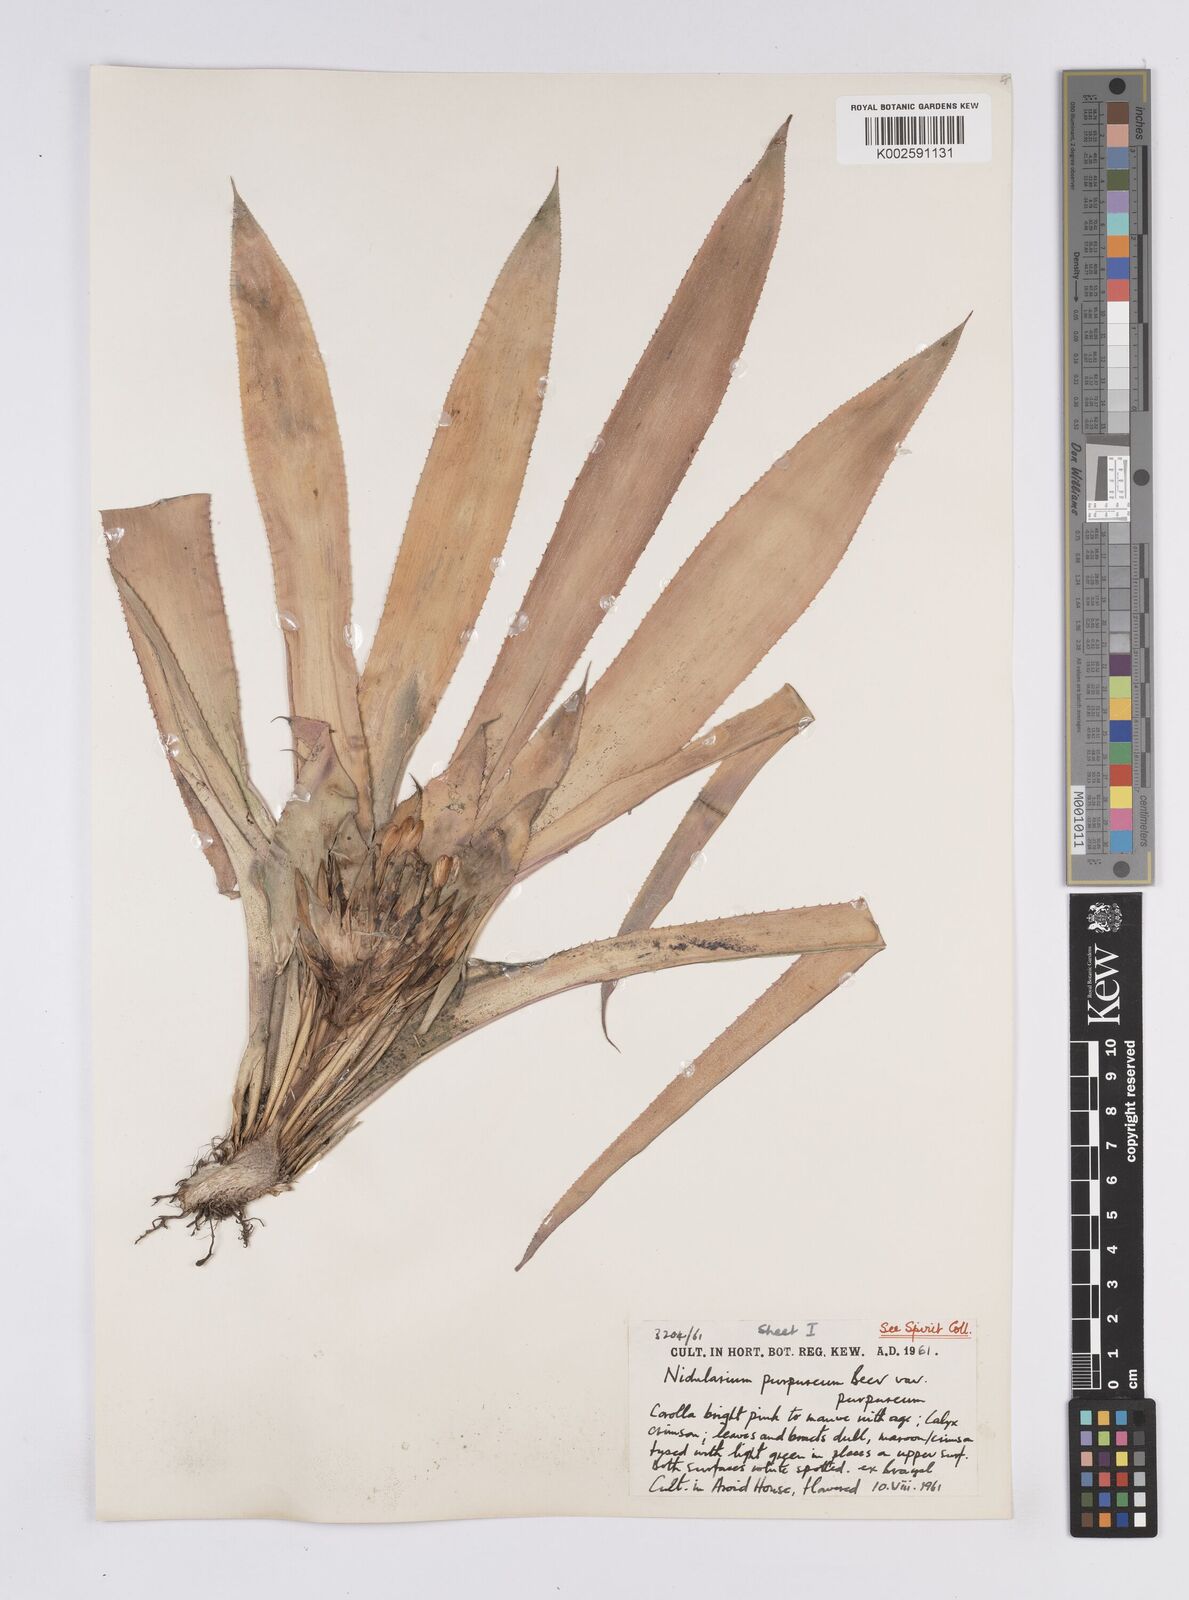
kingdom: Plantae
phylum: Tracheophyta
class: Liliopsida
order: Poales
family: Bromeliaceae
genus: Nidularium
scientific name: Nidularium purpureum
